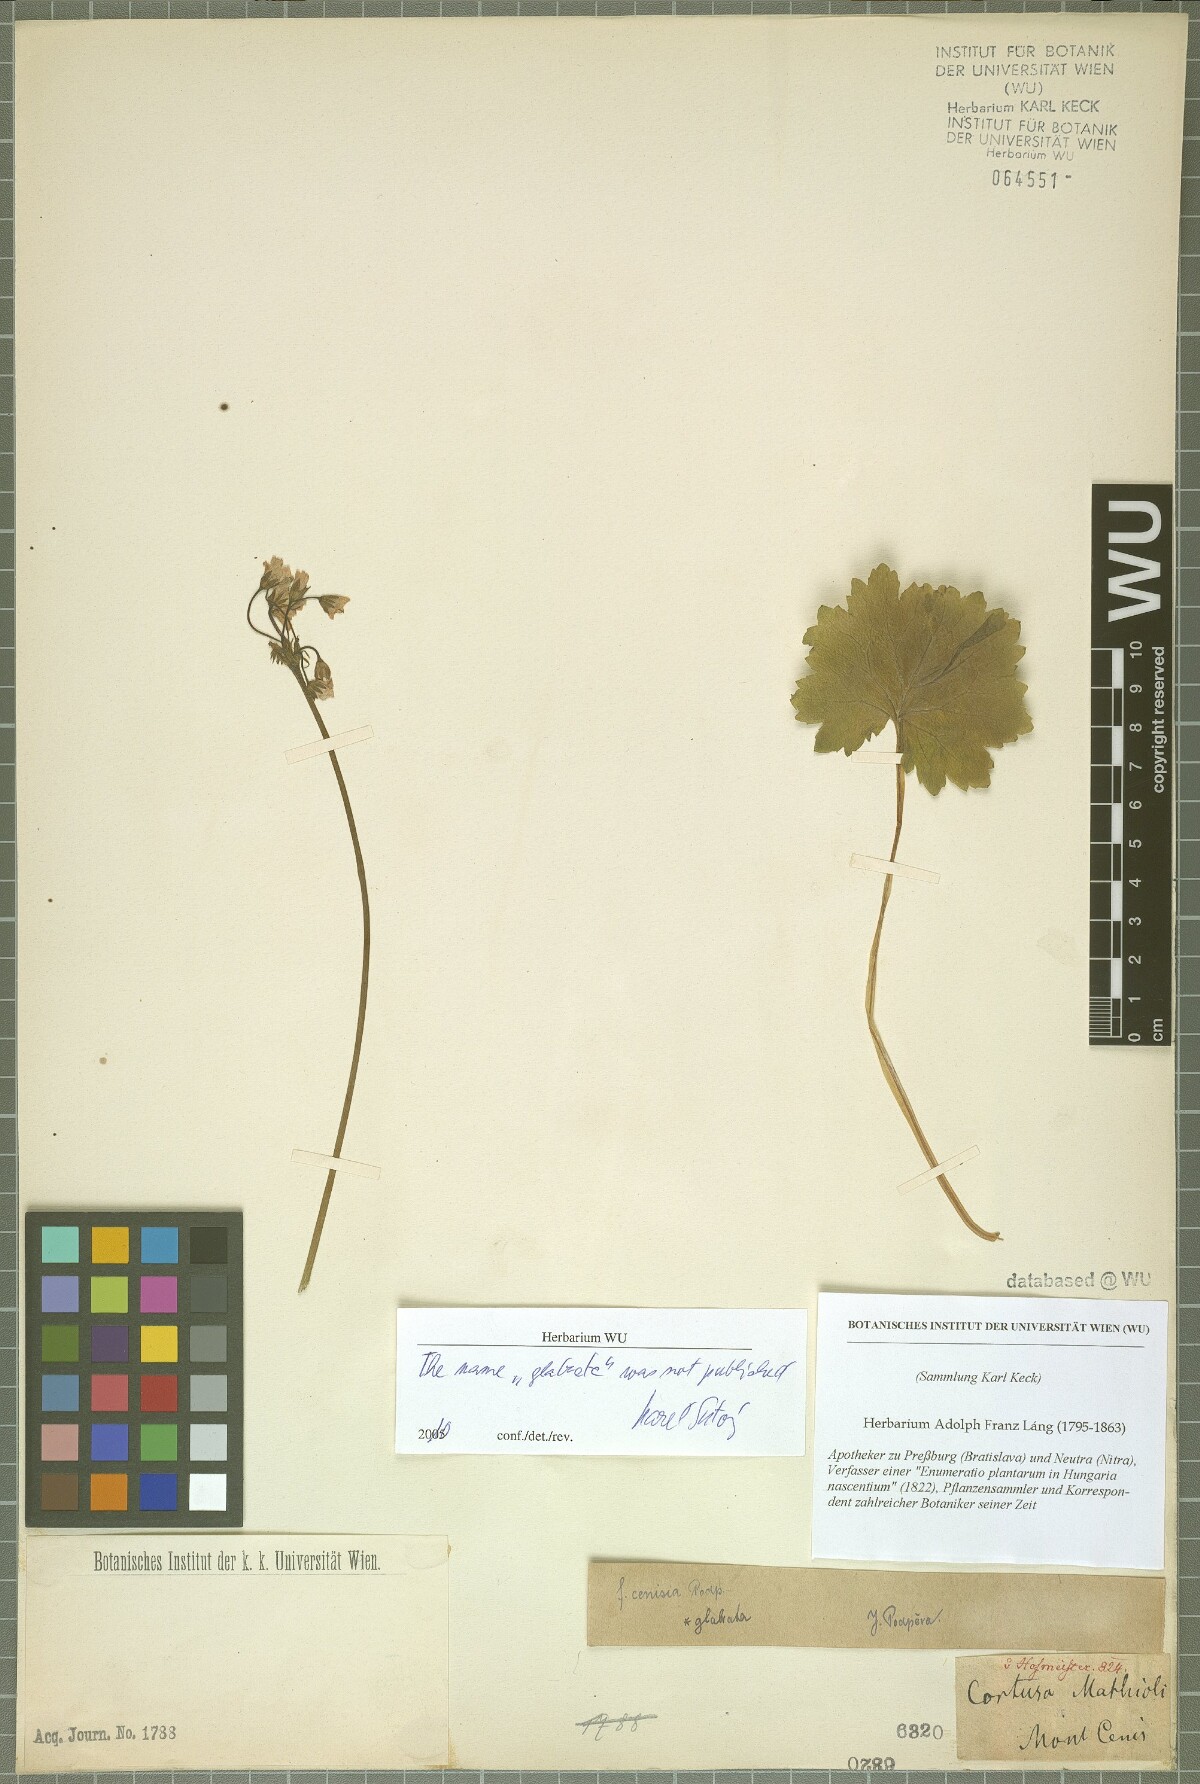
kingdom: Plantae
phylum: Tracheophyta
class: Magnoliopsida
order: Ericales
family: Primulaceae
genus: Primula
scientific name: Primula matthioli
